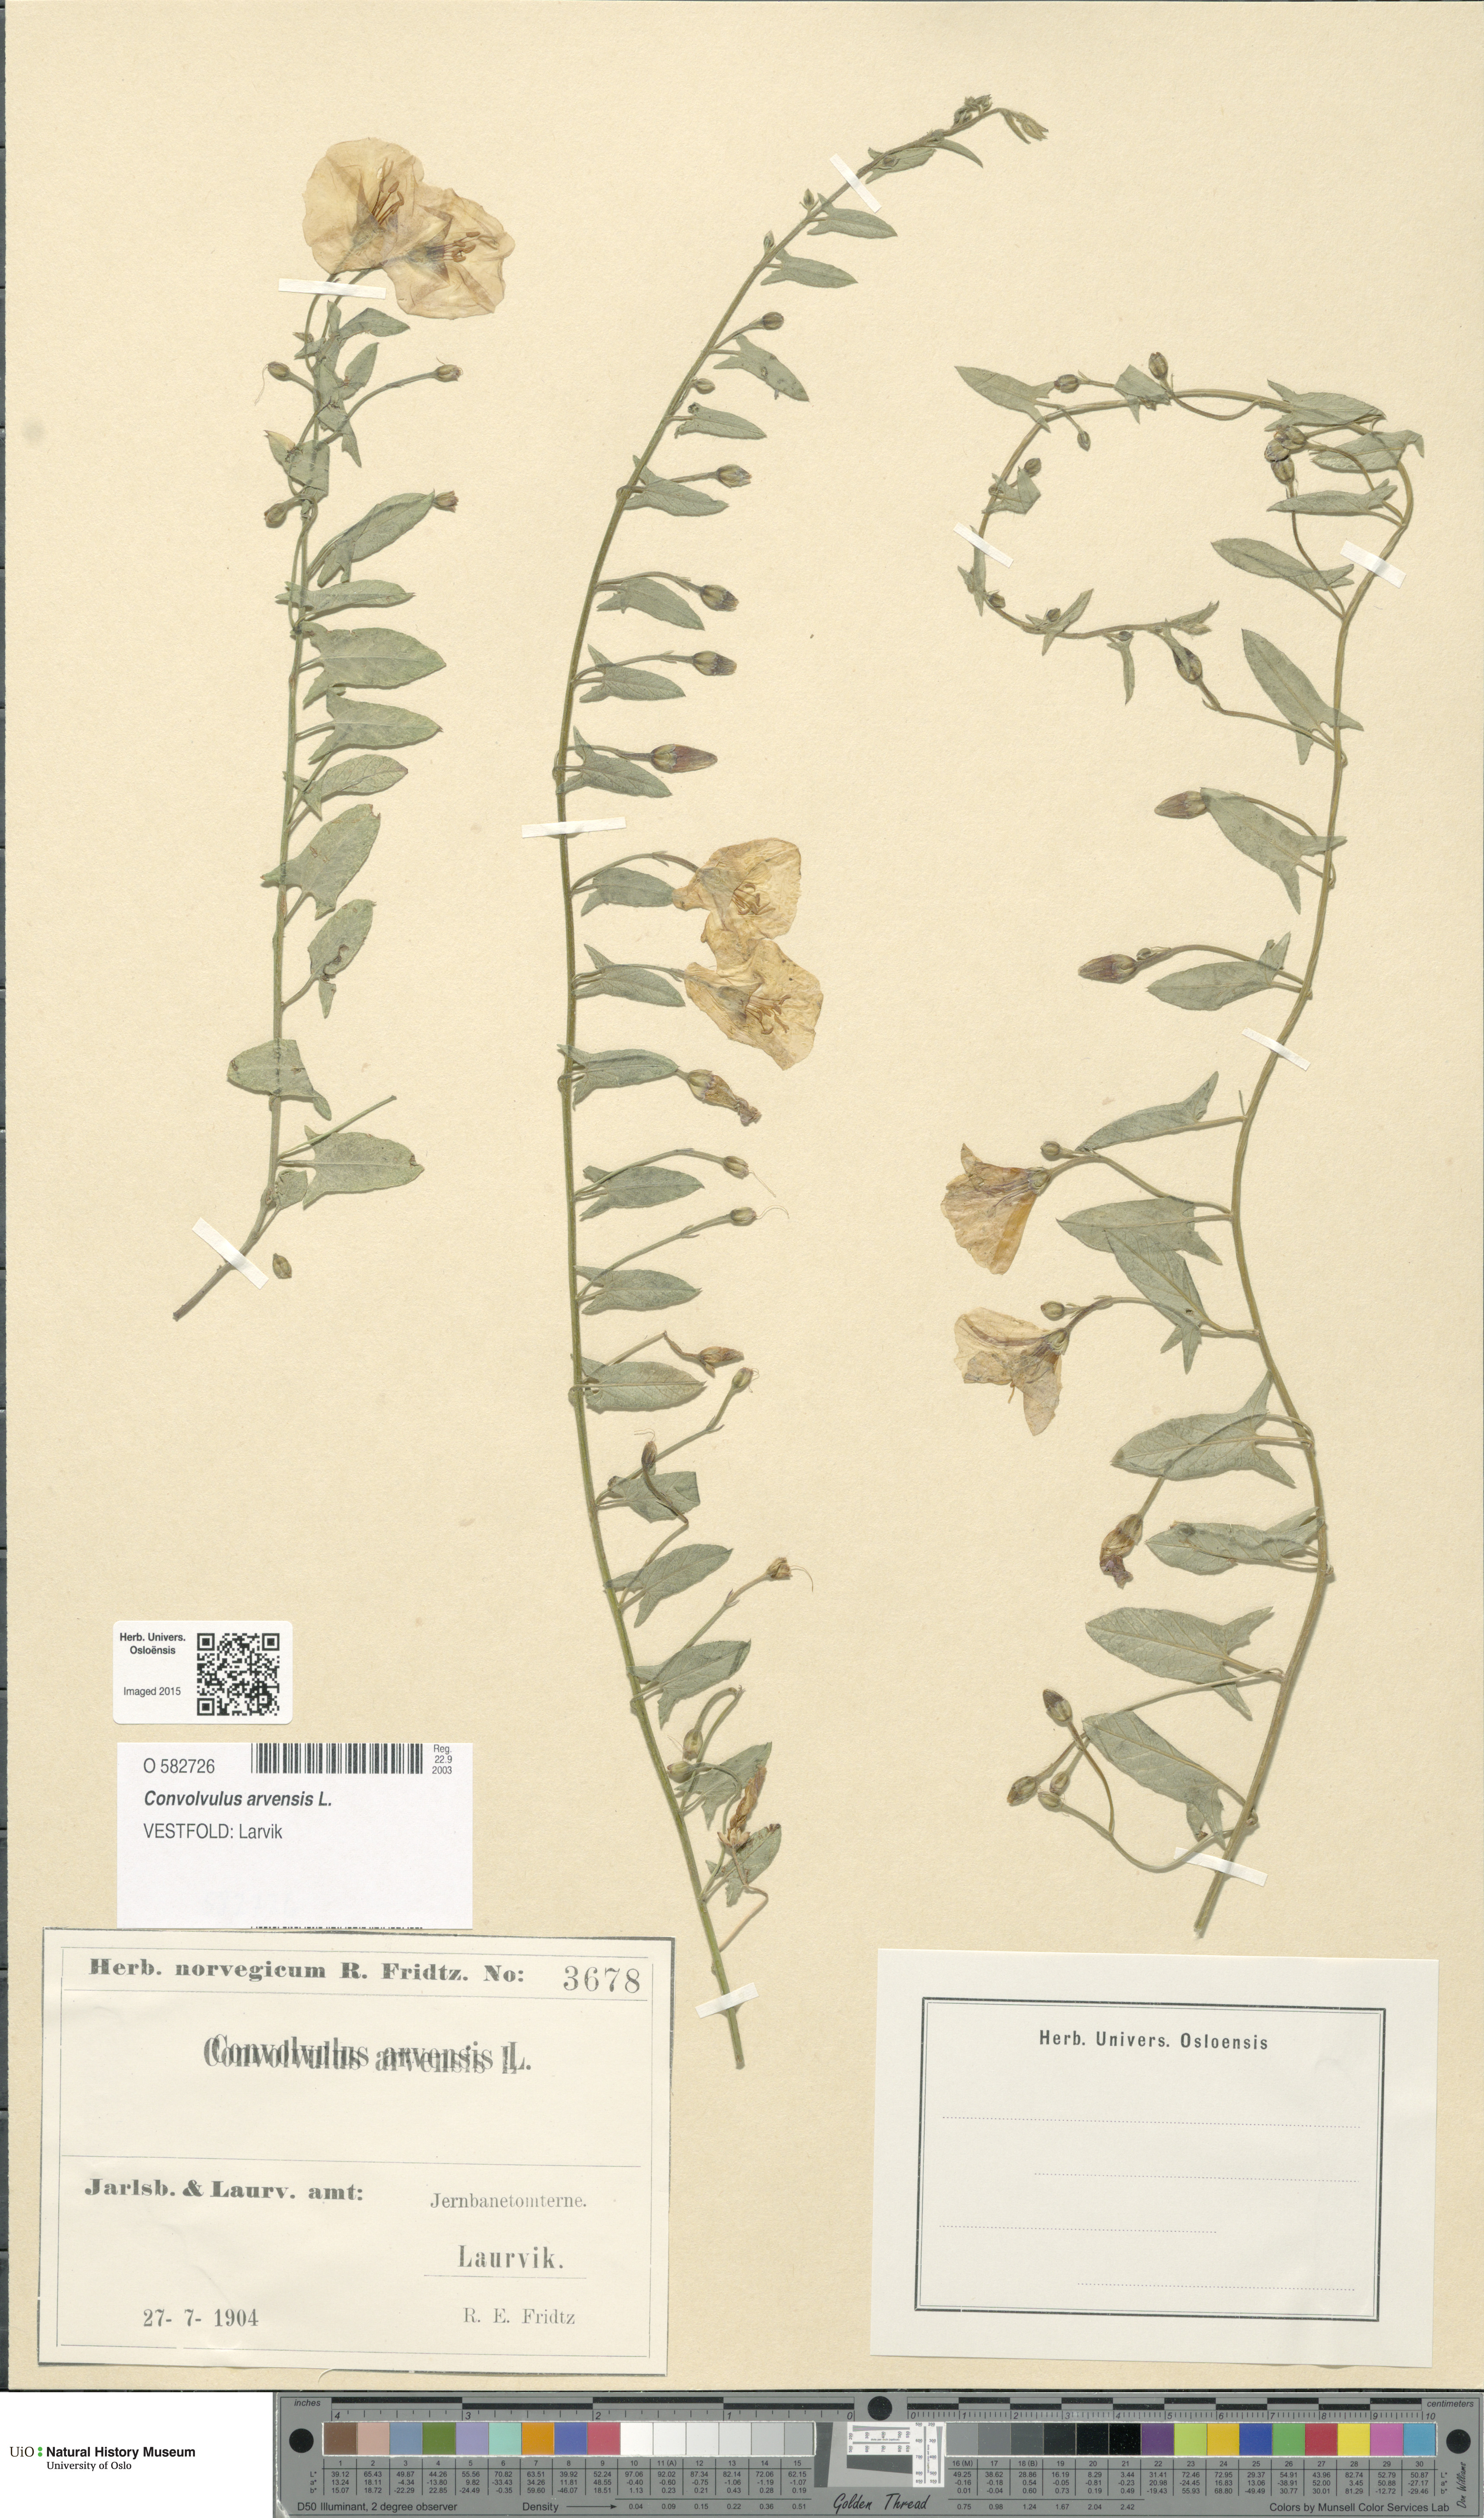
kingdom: Plantae
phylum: Tracheophyta
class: Magnoliopsida
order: Solanales
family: Convolvulaceae
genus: Convolvulus
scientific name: Convolvulus arvensis
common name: Field bindweed
